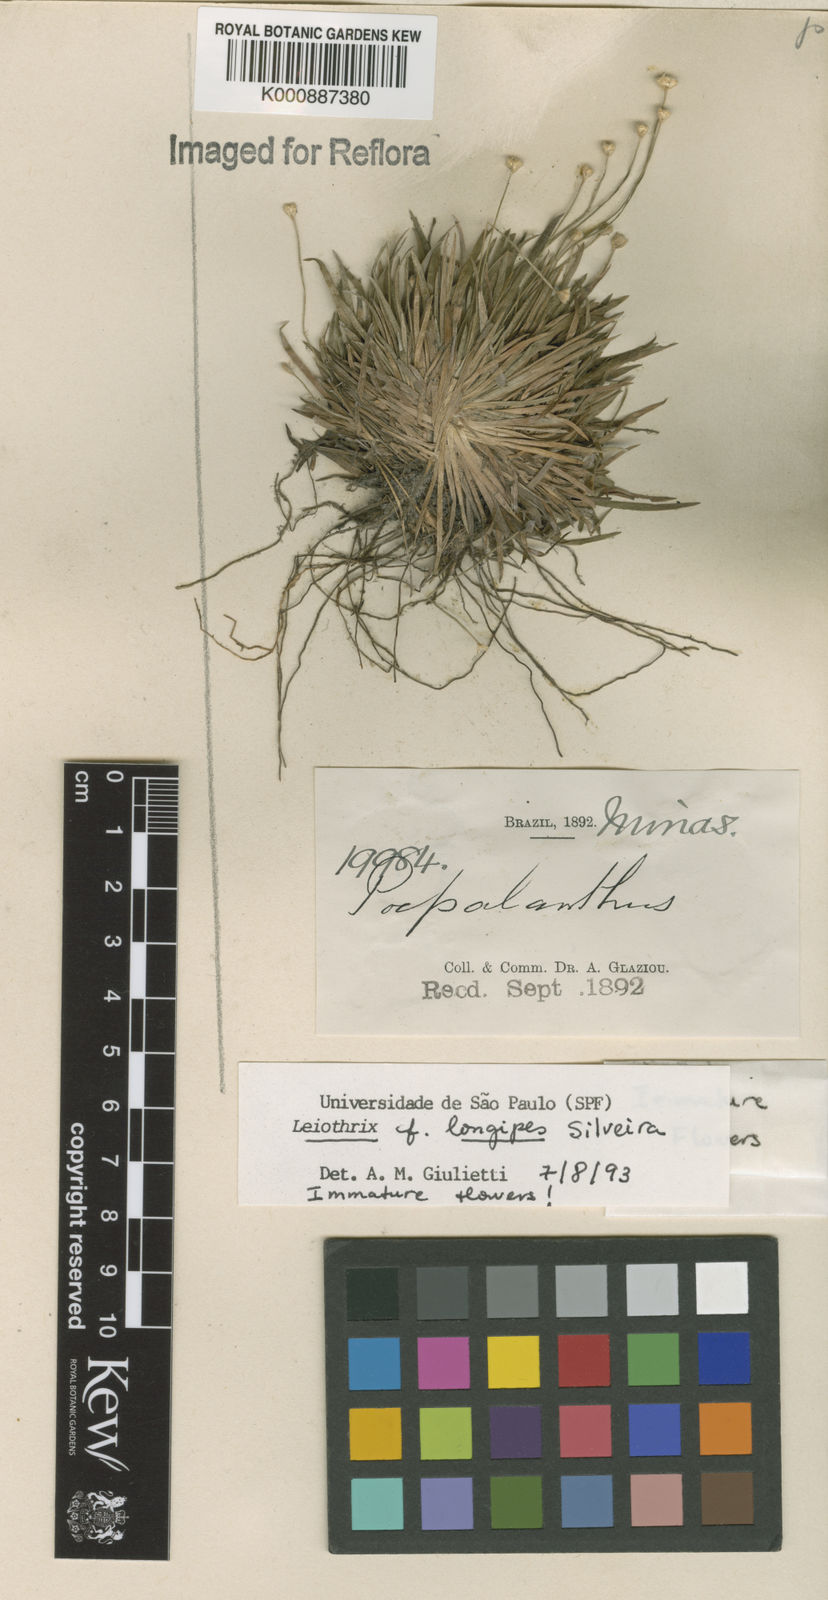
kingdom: Plantae
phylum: Tracheophyta
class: Liliopsida
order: Poales
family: Eriocaulaceae
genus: Leiothrix
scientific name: Leiothrix longipes
